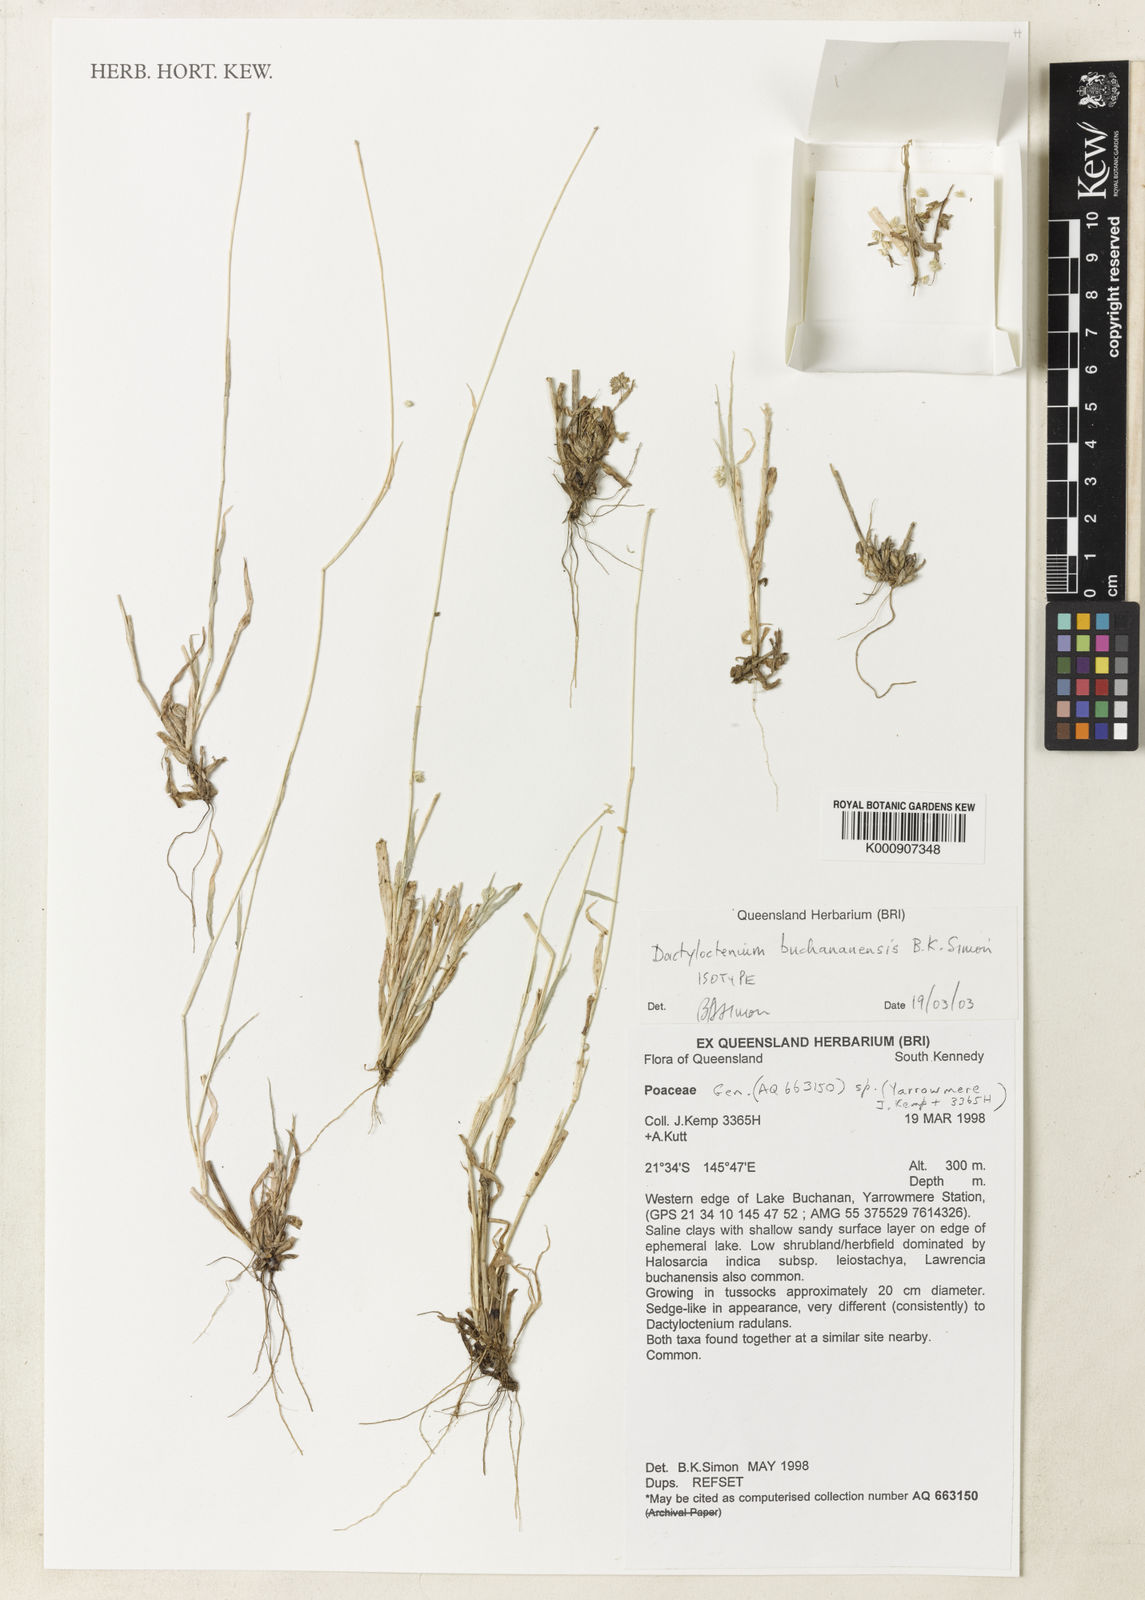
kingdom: Plantae
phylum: Tracheophyta
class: Liliopsida
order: Poales
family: Poaceae
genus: Dactyloctenium
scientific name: Dactyloctenium buchananensis
